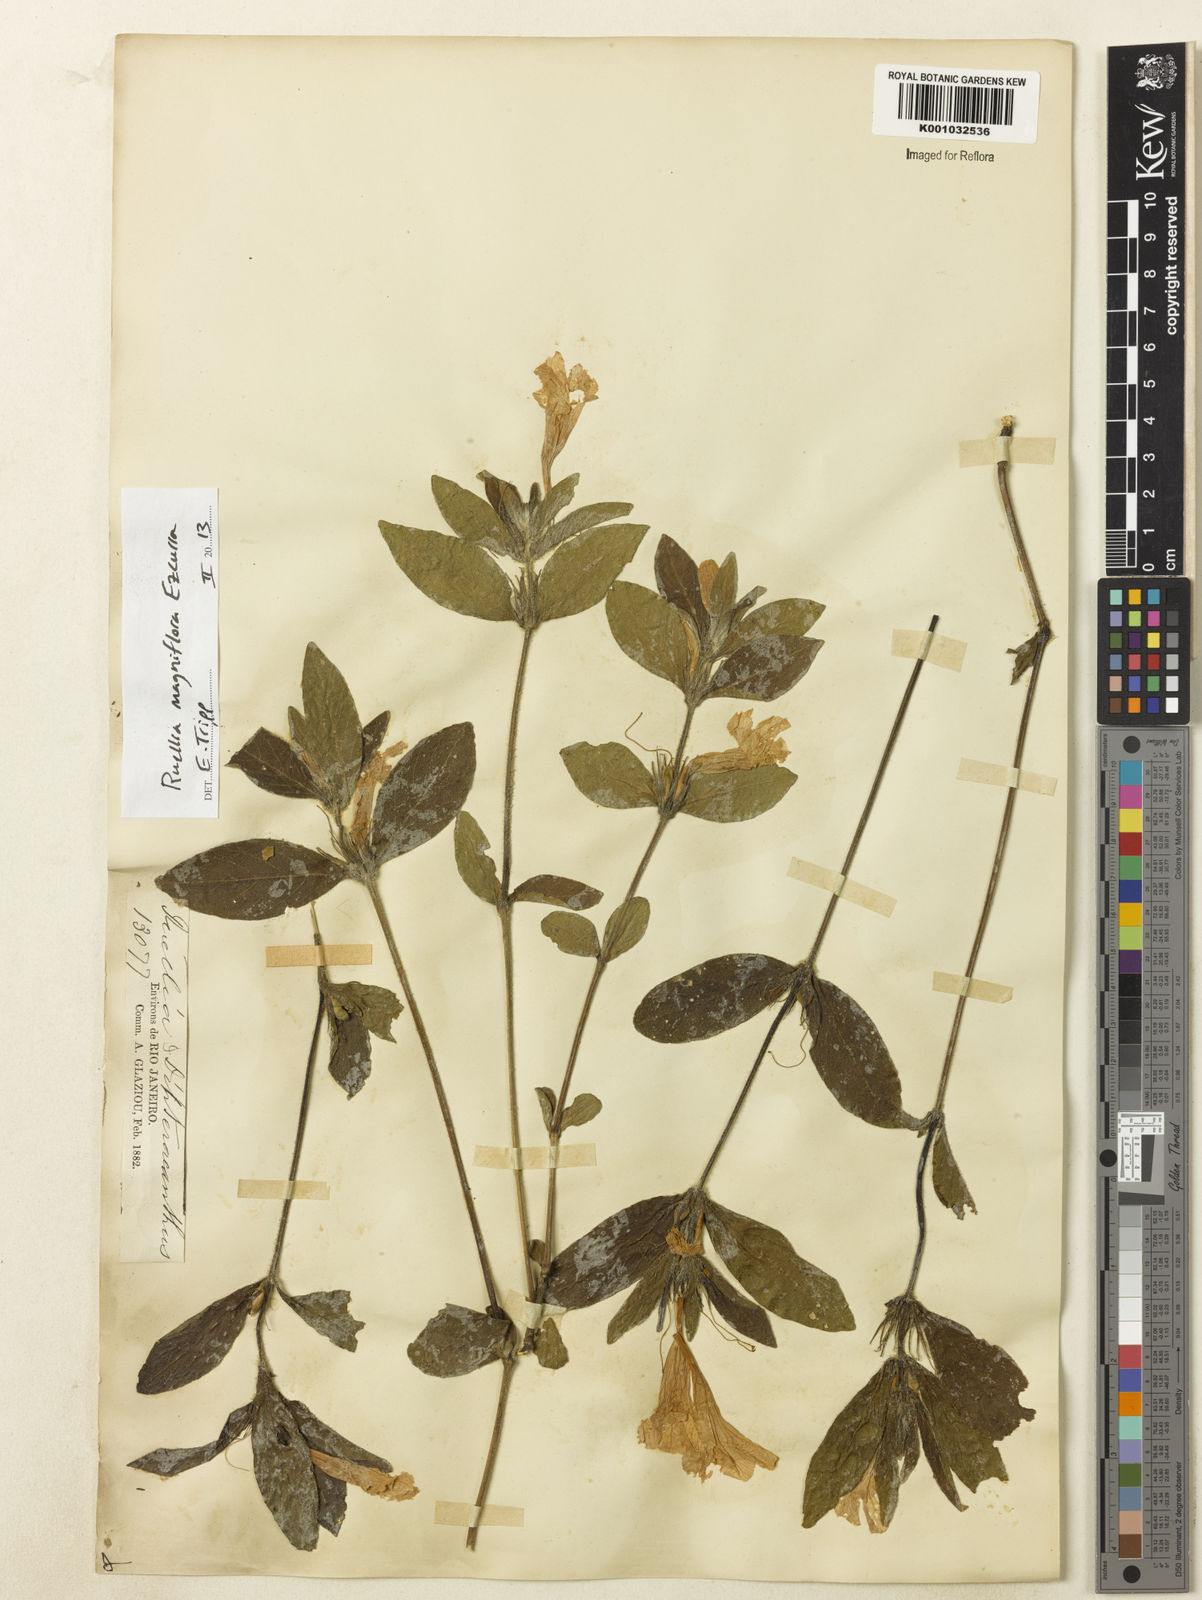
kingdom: Plantae
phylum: Tracheophyta
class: Magnoliopsida
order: Lamiales
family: Acanthaceae
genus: Ruellia
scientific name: Ruellia magniflora
